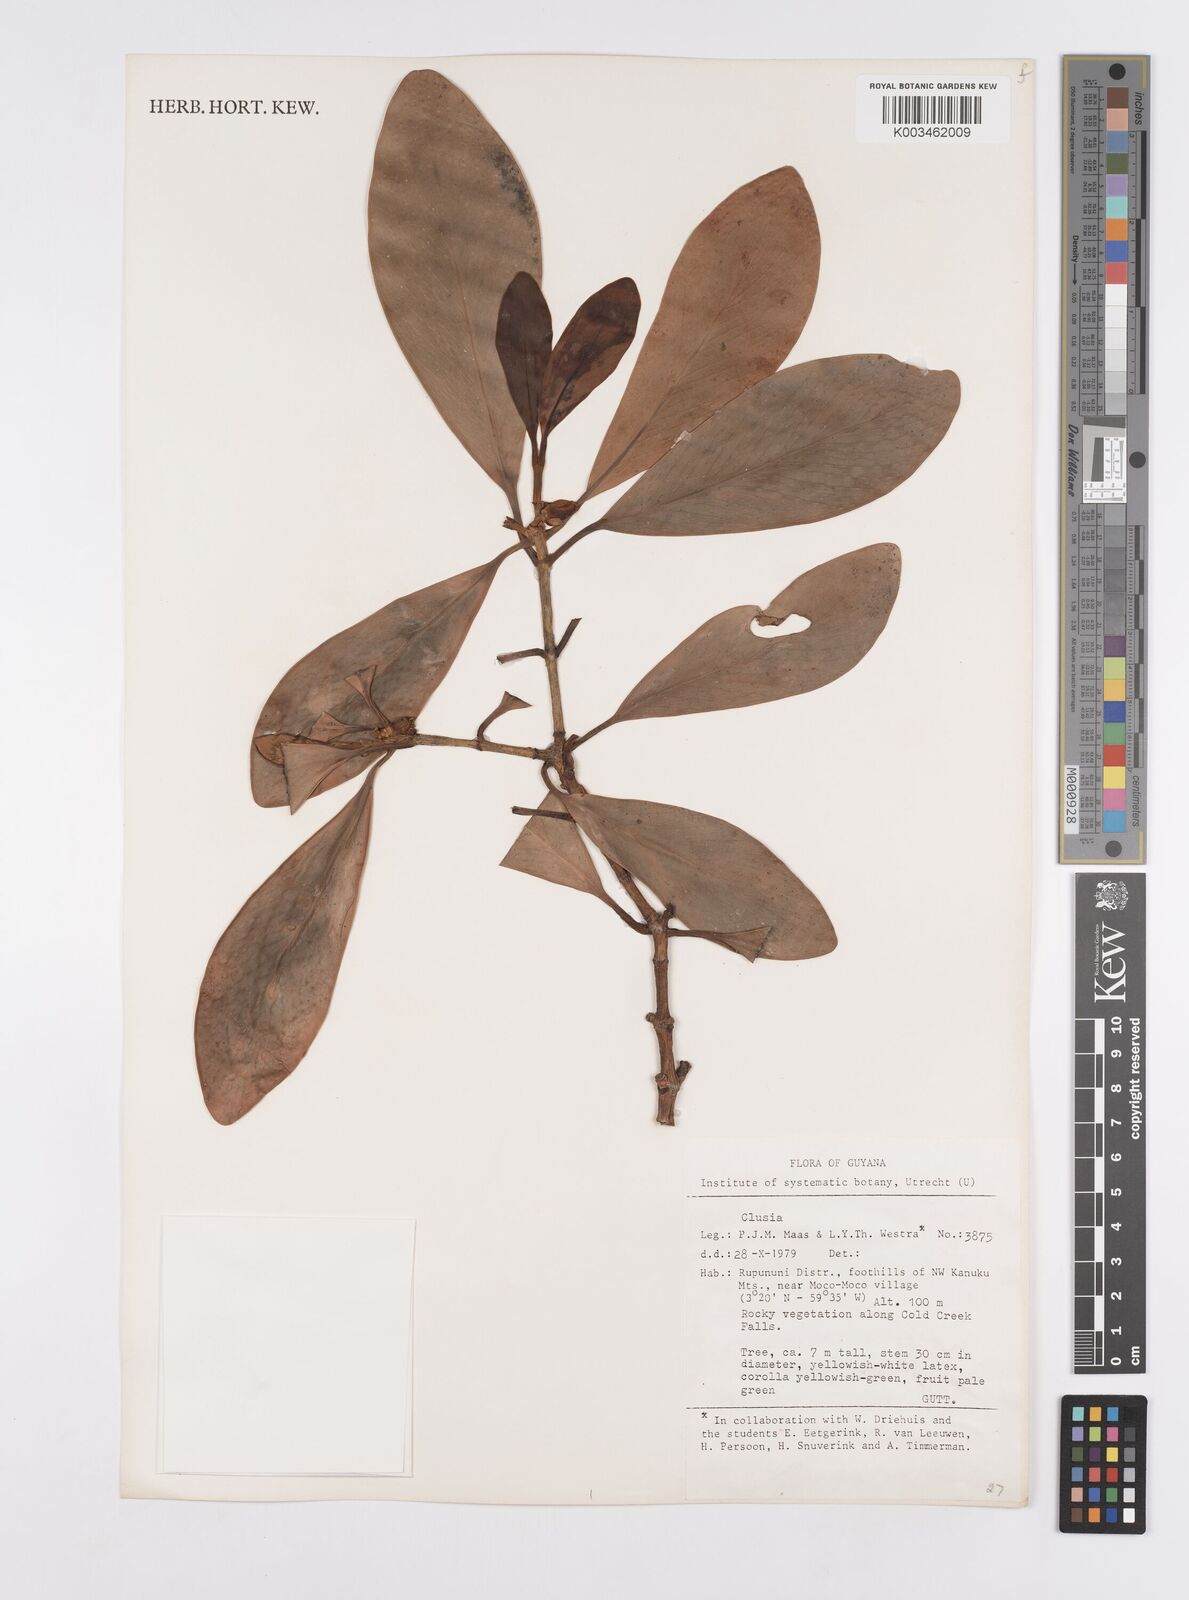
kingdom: Plantae
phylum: Tracheophyta
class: Magnoliopsida
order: Malpighiales
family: Clusiaceae
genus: Clusia
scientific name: Clusia panapanari
